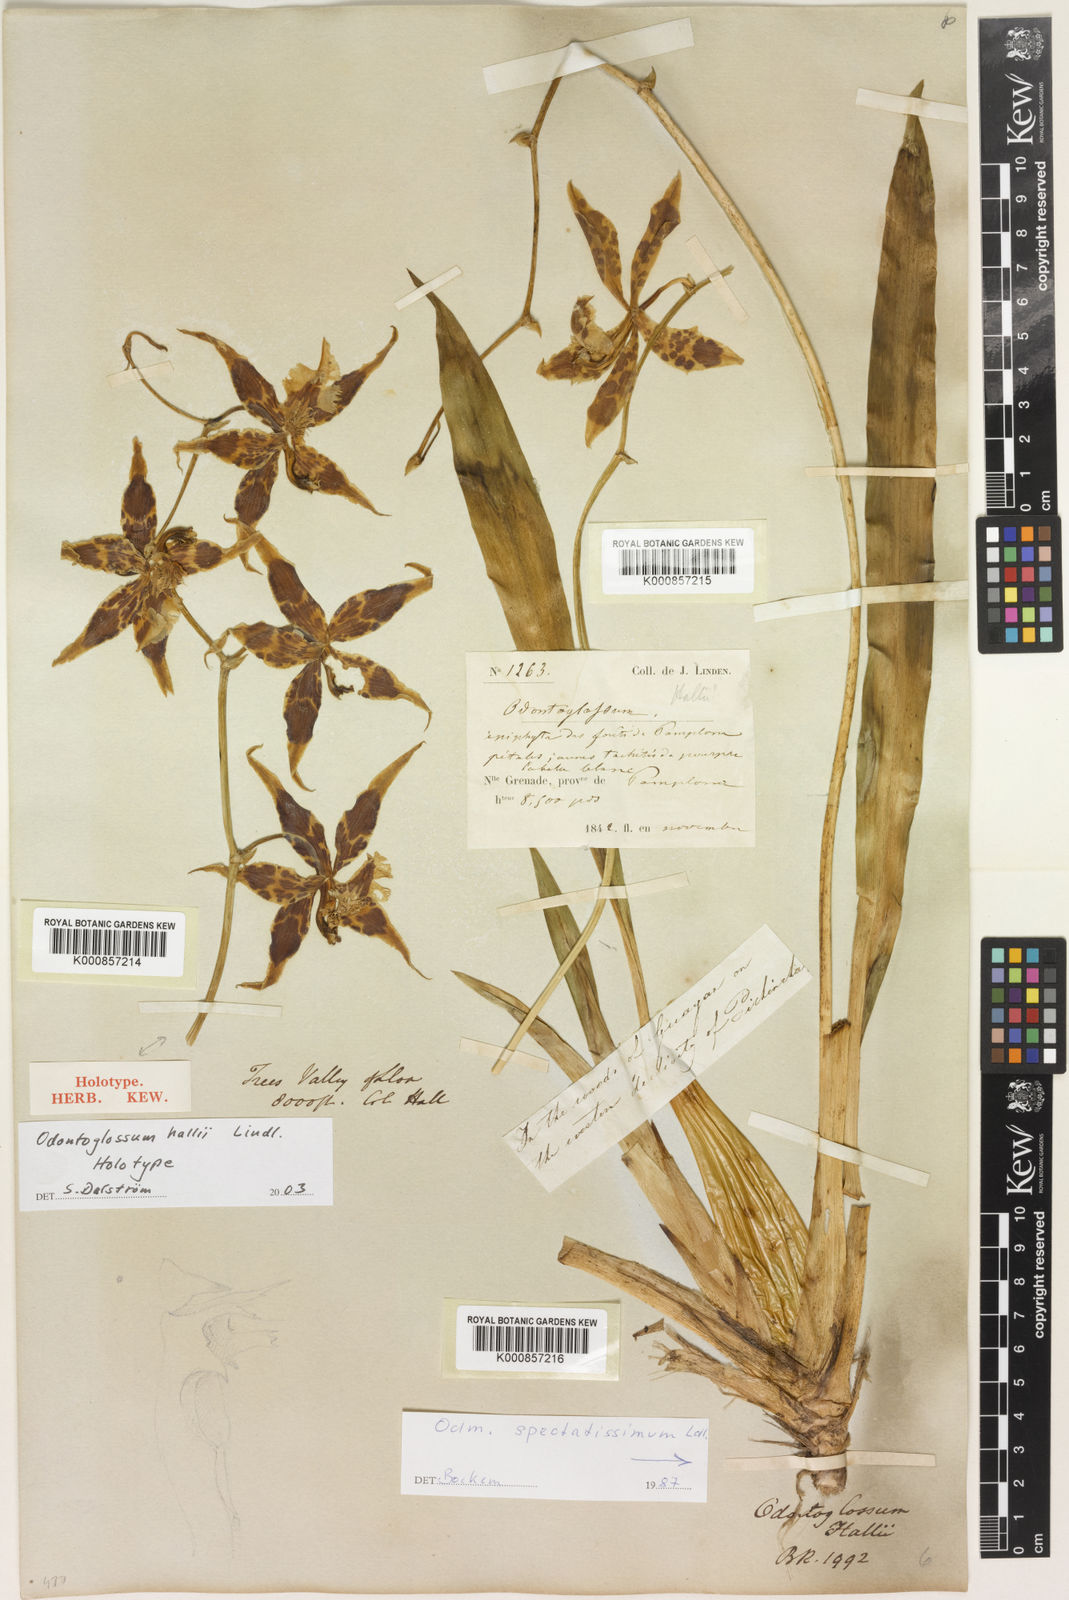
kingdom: Plantae
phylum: Tracheophyta
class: Liliopsida
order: Asparagales
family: Orchidaceae
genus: Oncidium
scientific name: Oncidium hallii
